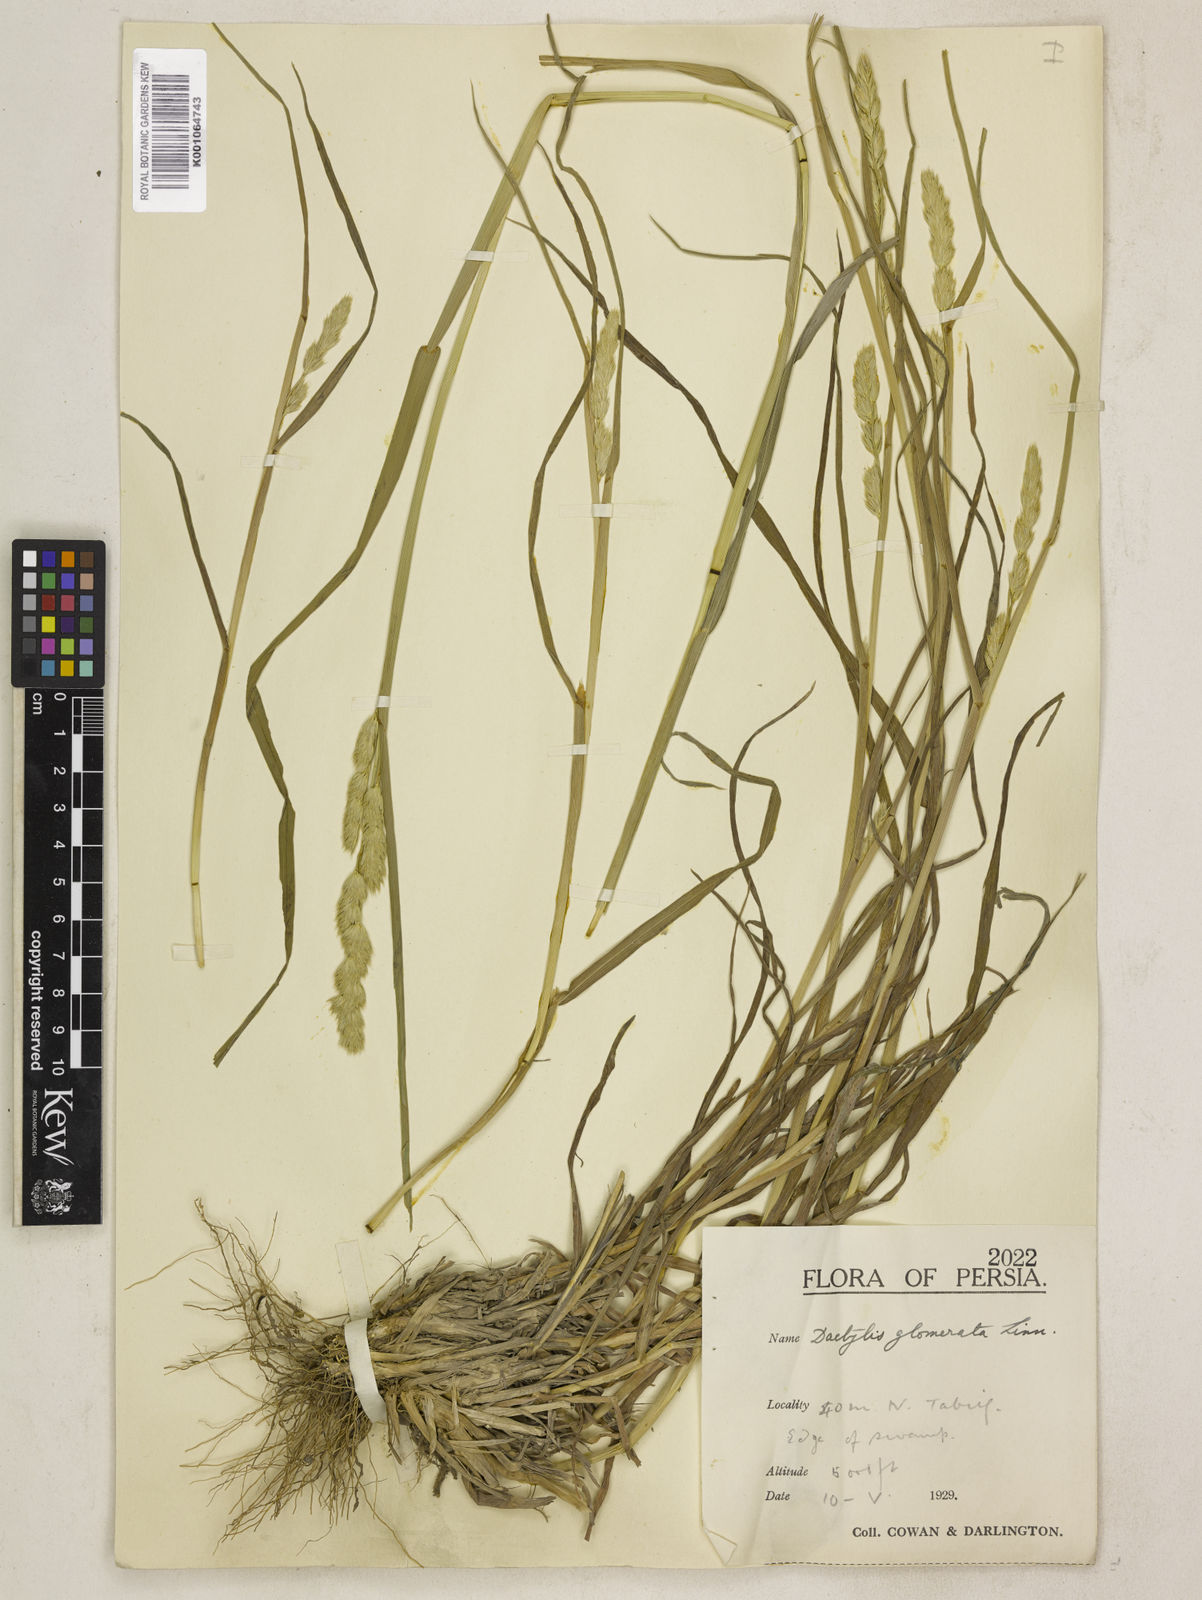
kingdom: Plantae
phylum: Tracheophyta
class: Liliopsida
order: Poales
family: Poaceae
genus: Dactylis
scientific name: Dactylis glomerata
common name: Orchardgrass
